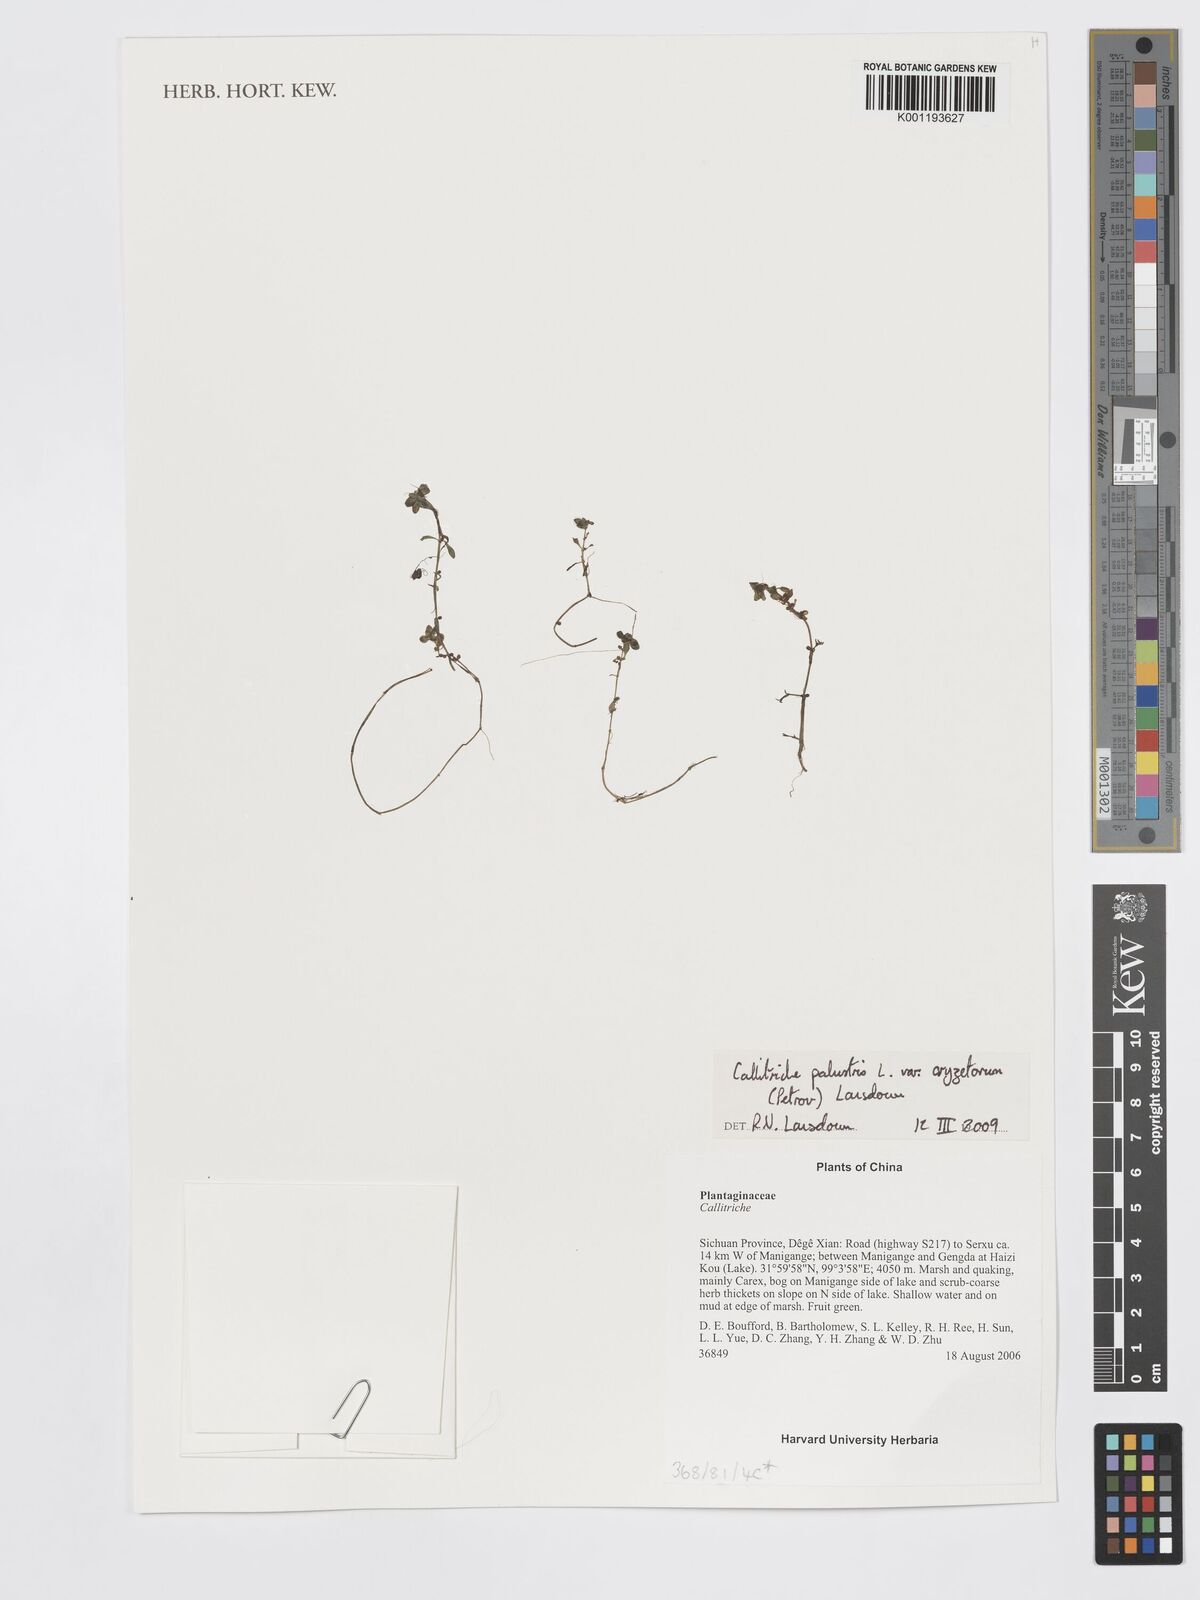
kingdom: Plantae
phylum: Tracheophyta
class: Magnoliopsida
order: Lamiales
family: Plantaginaceae
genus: Callitriche
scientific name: Callitriche palustris
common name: Spring water-starwort
